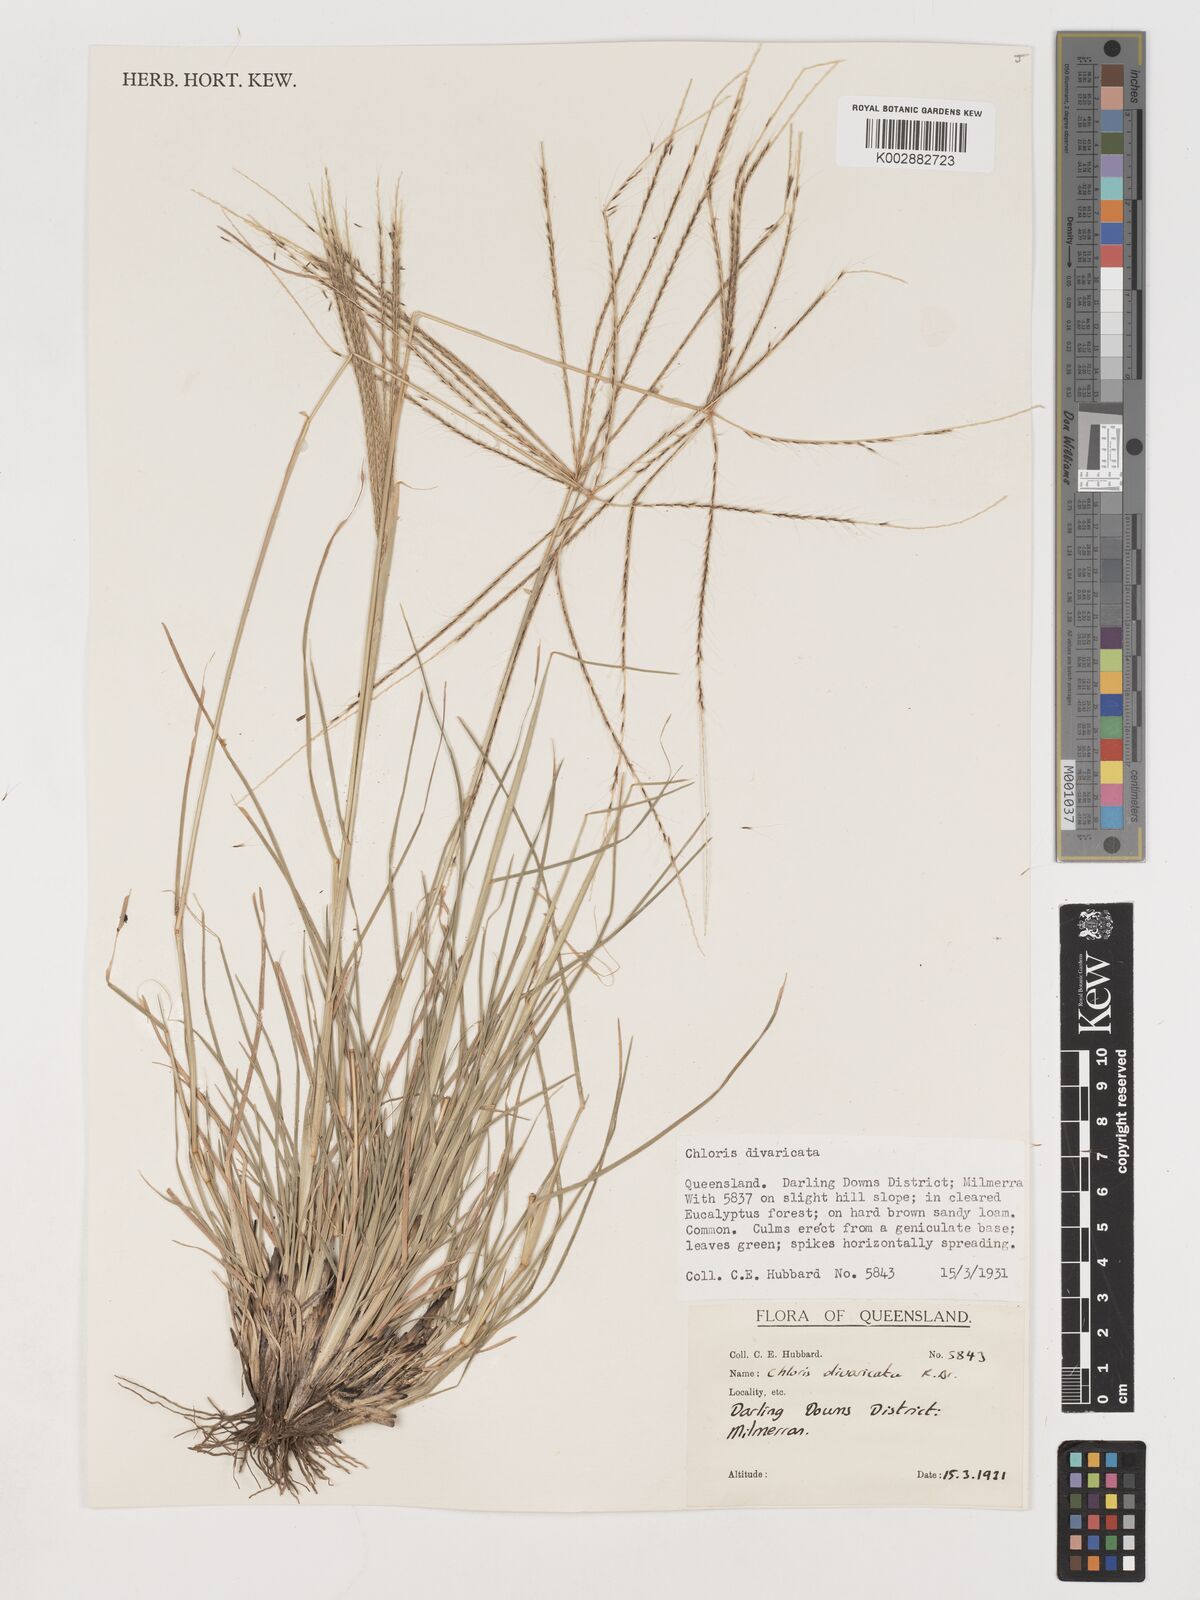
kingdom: Plantae
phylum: Tracheophyta
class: Liliopsida
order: Poales
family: Poaceae
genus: Chloris
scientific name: Chloris divaricata
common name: Spreading windmill grass
